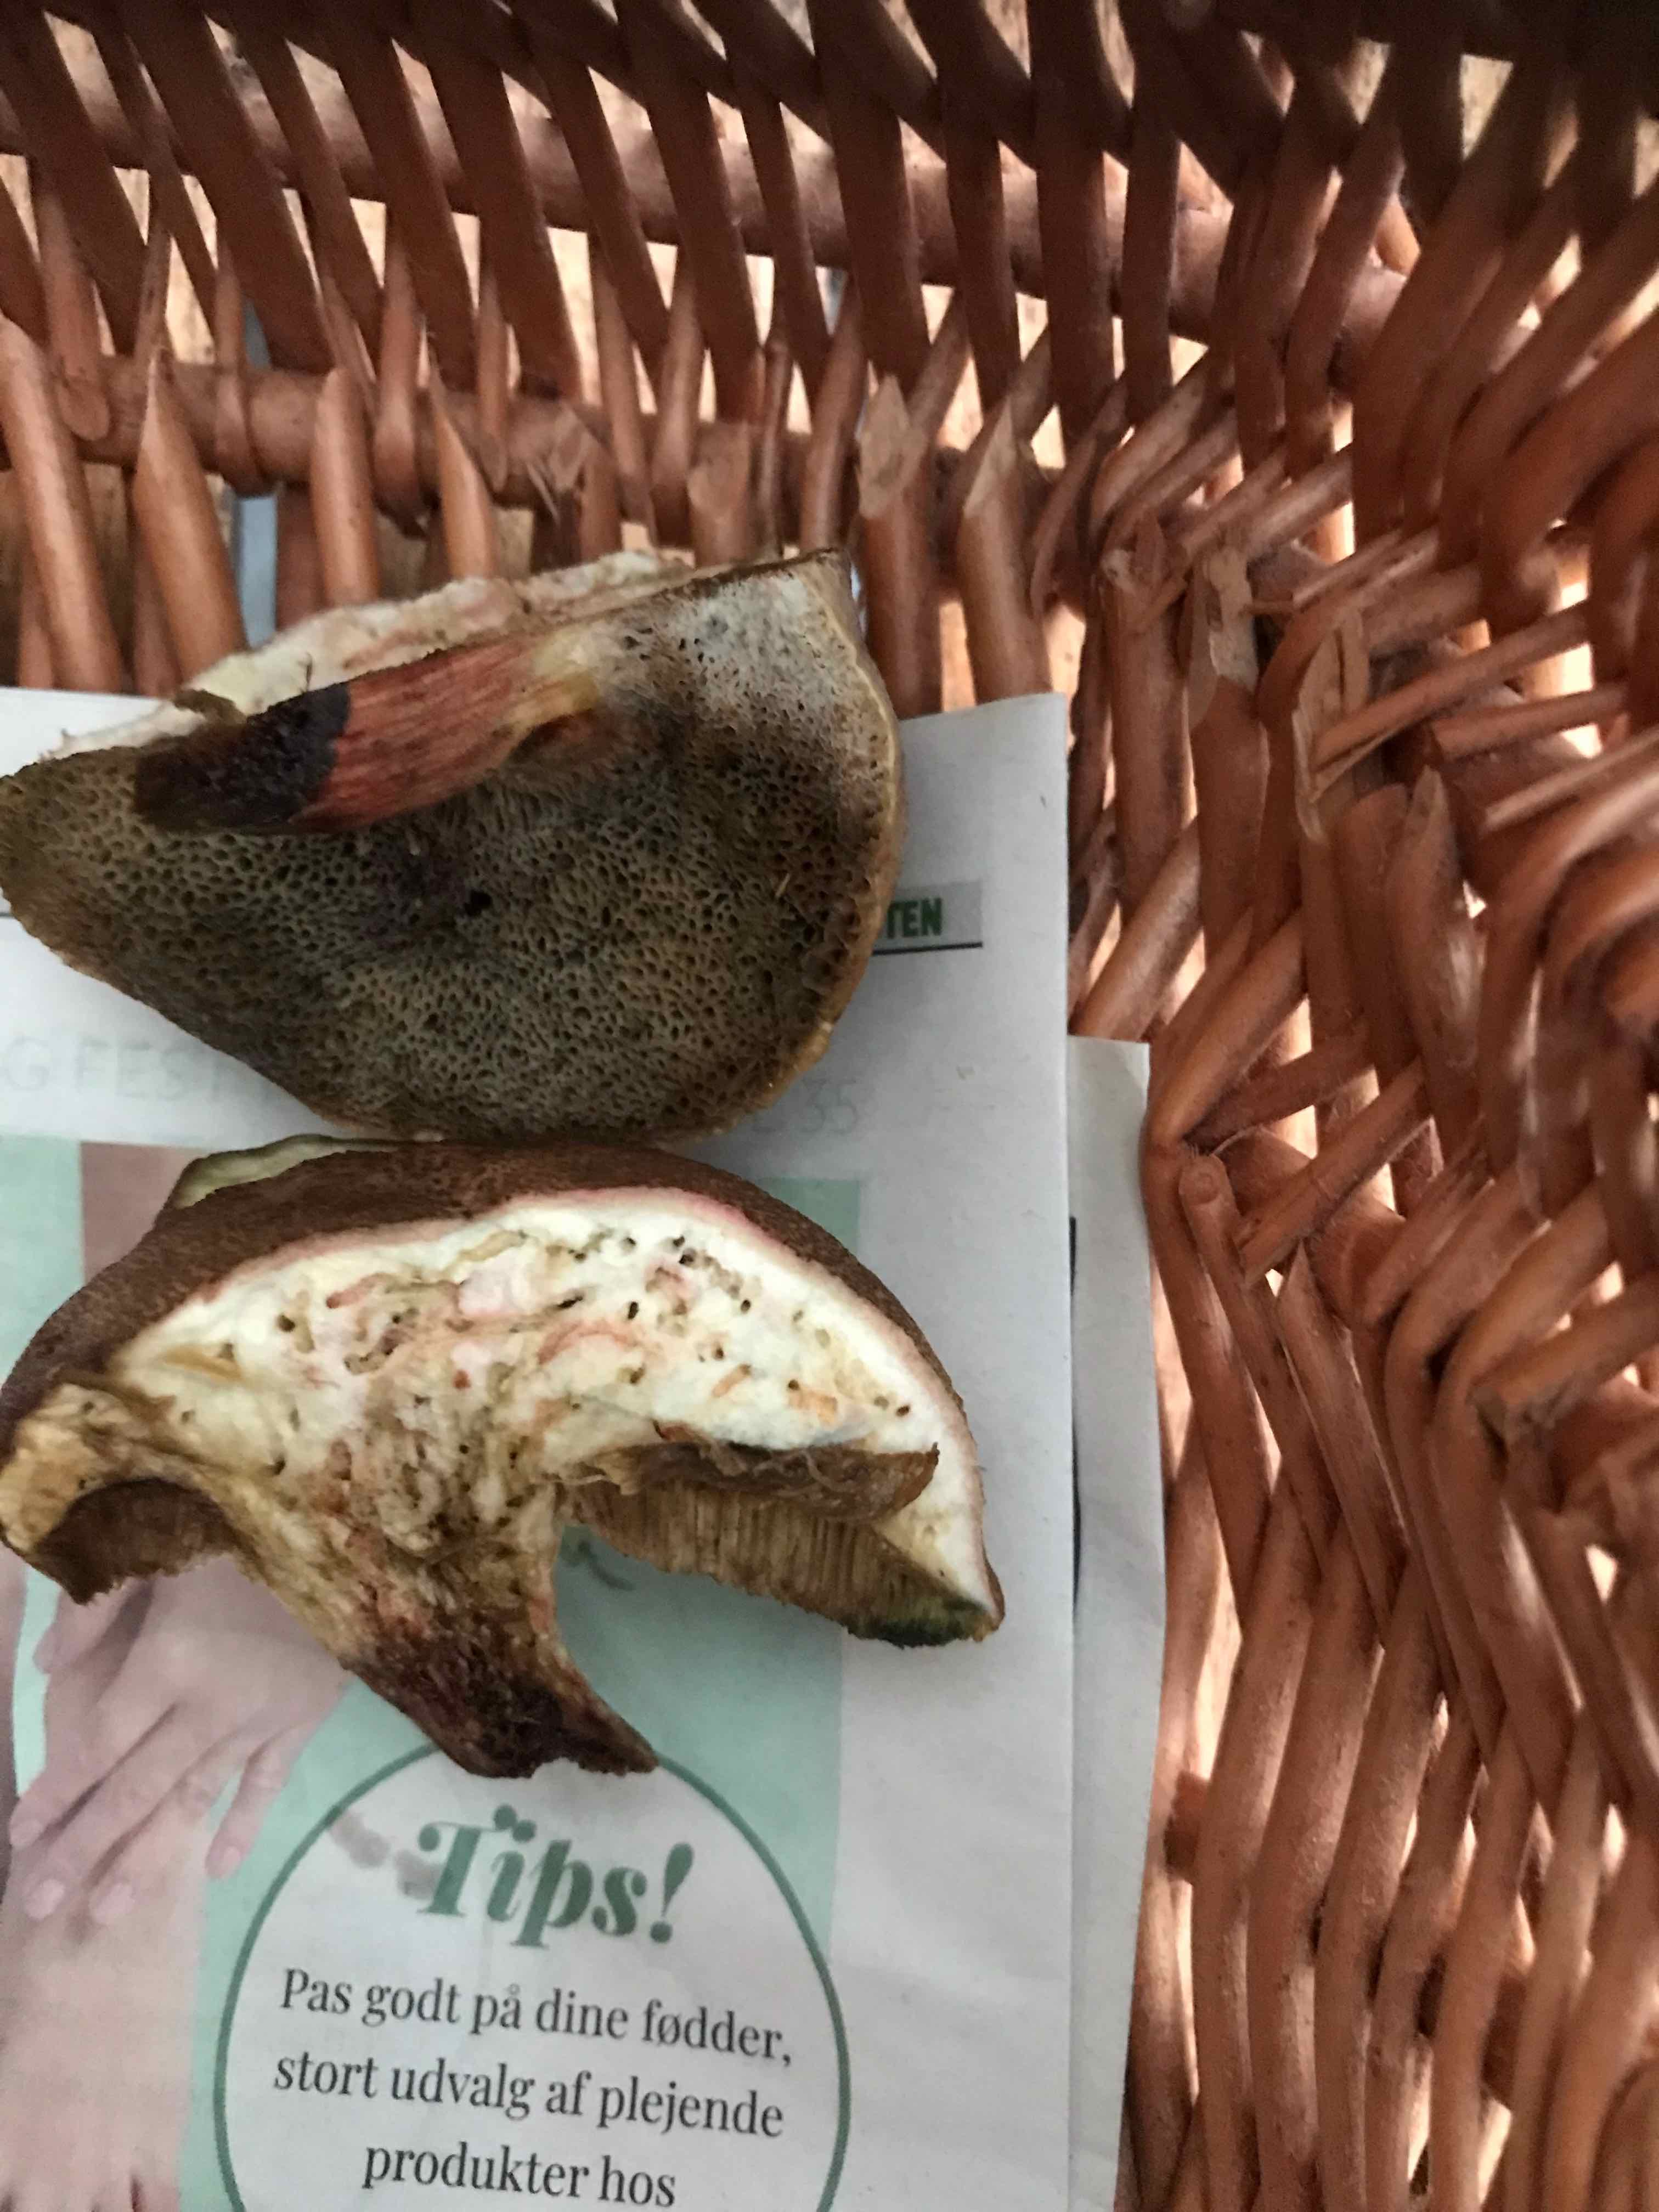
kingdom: Fungi
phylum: Basidiomycota
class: Agaricomycetes
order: Boletales
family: Boletaceae
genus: Xerocomellus
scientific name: Xerocomellus
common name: dværgrørhat
